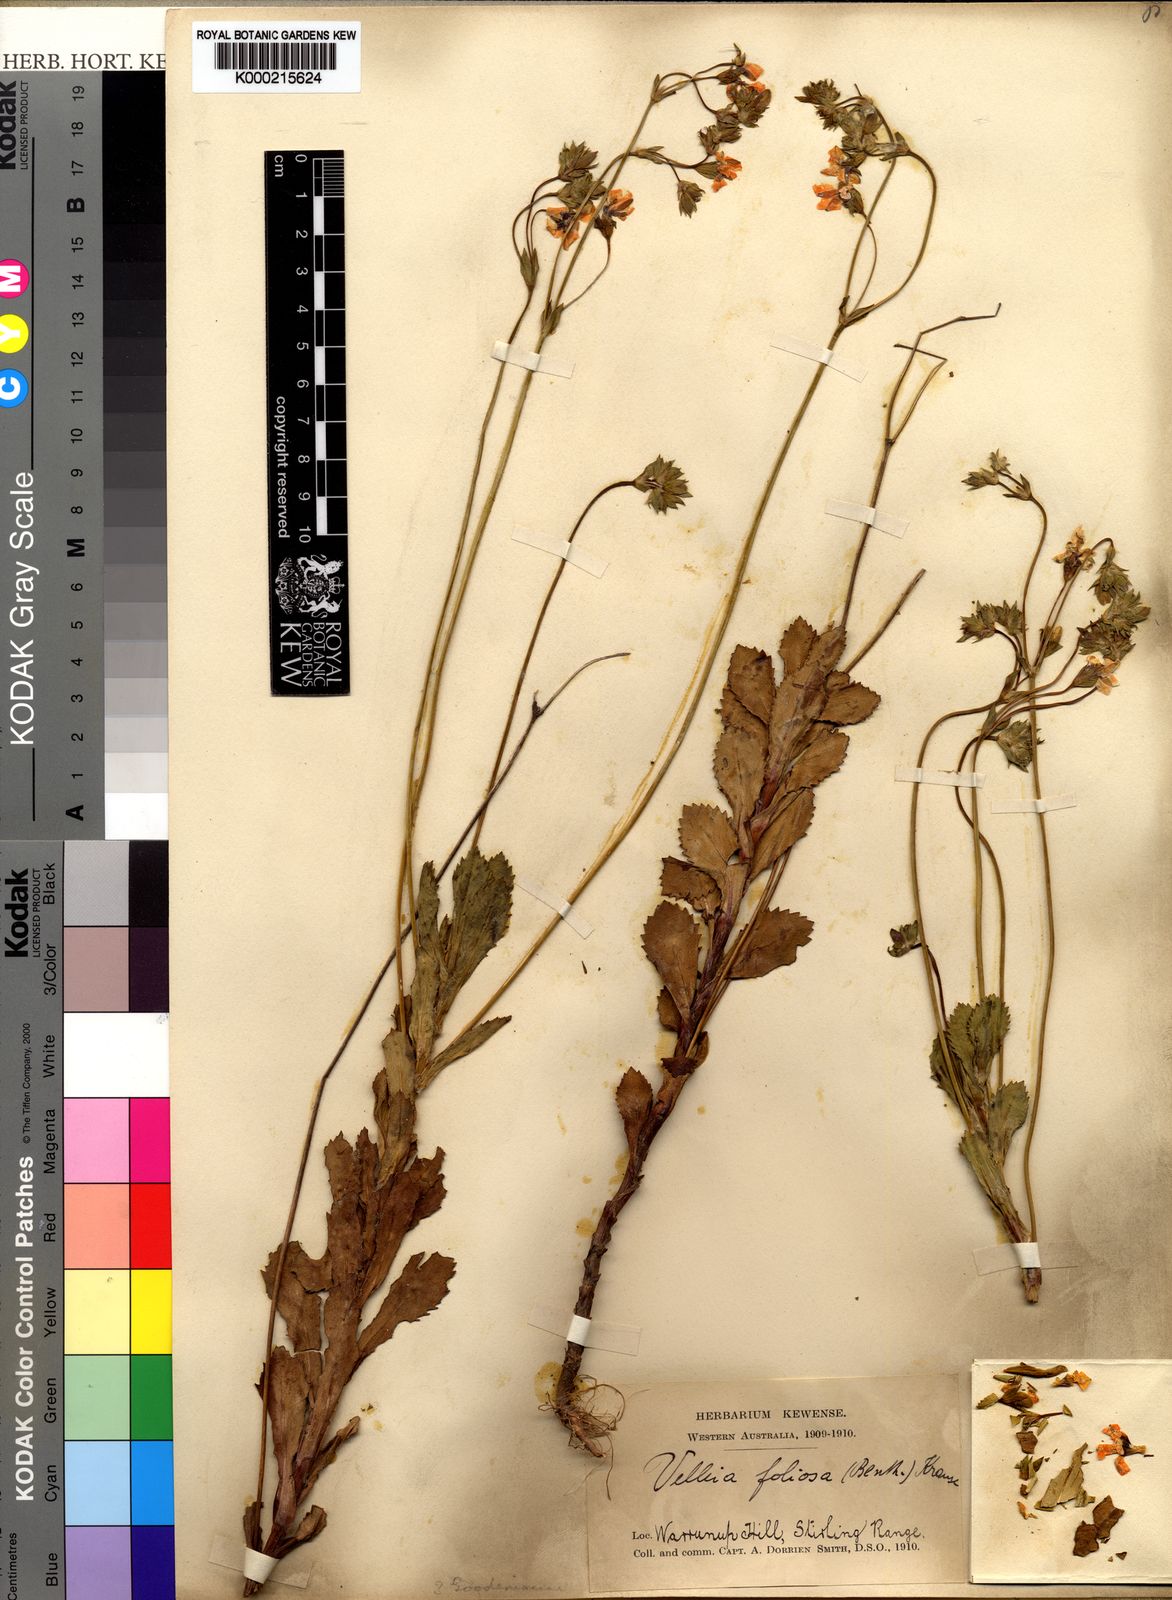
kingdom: Plantae
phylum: Tracheophyta
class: Magnoliopsida
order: Asterales
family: Goodeniaceae
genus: Goodenia
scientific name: Goodenia brendannarum
